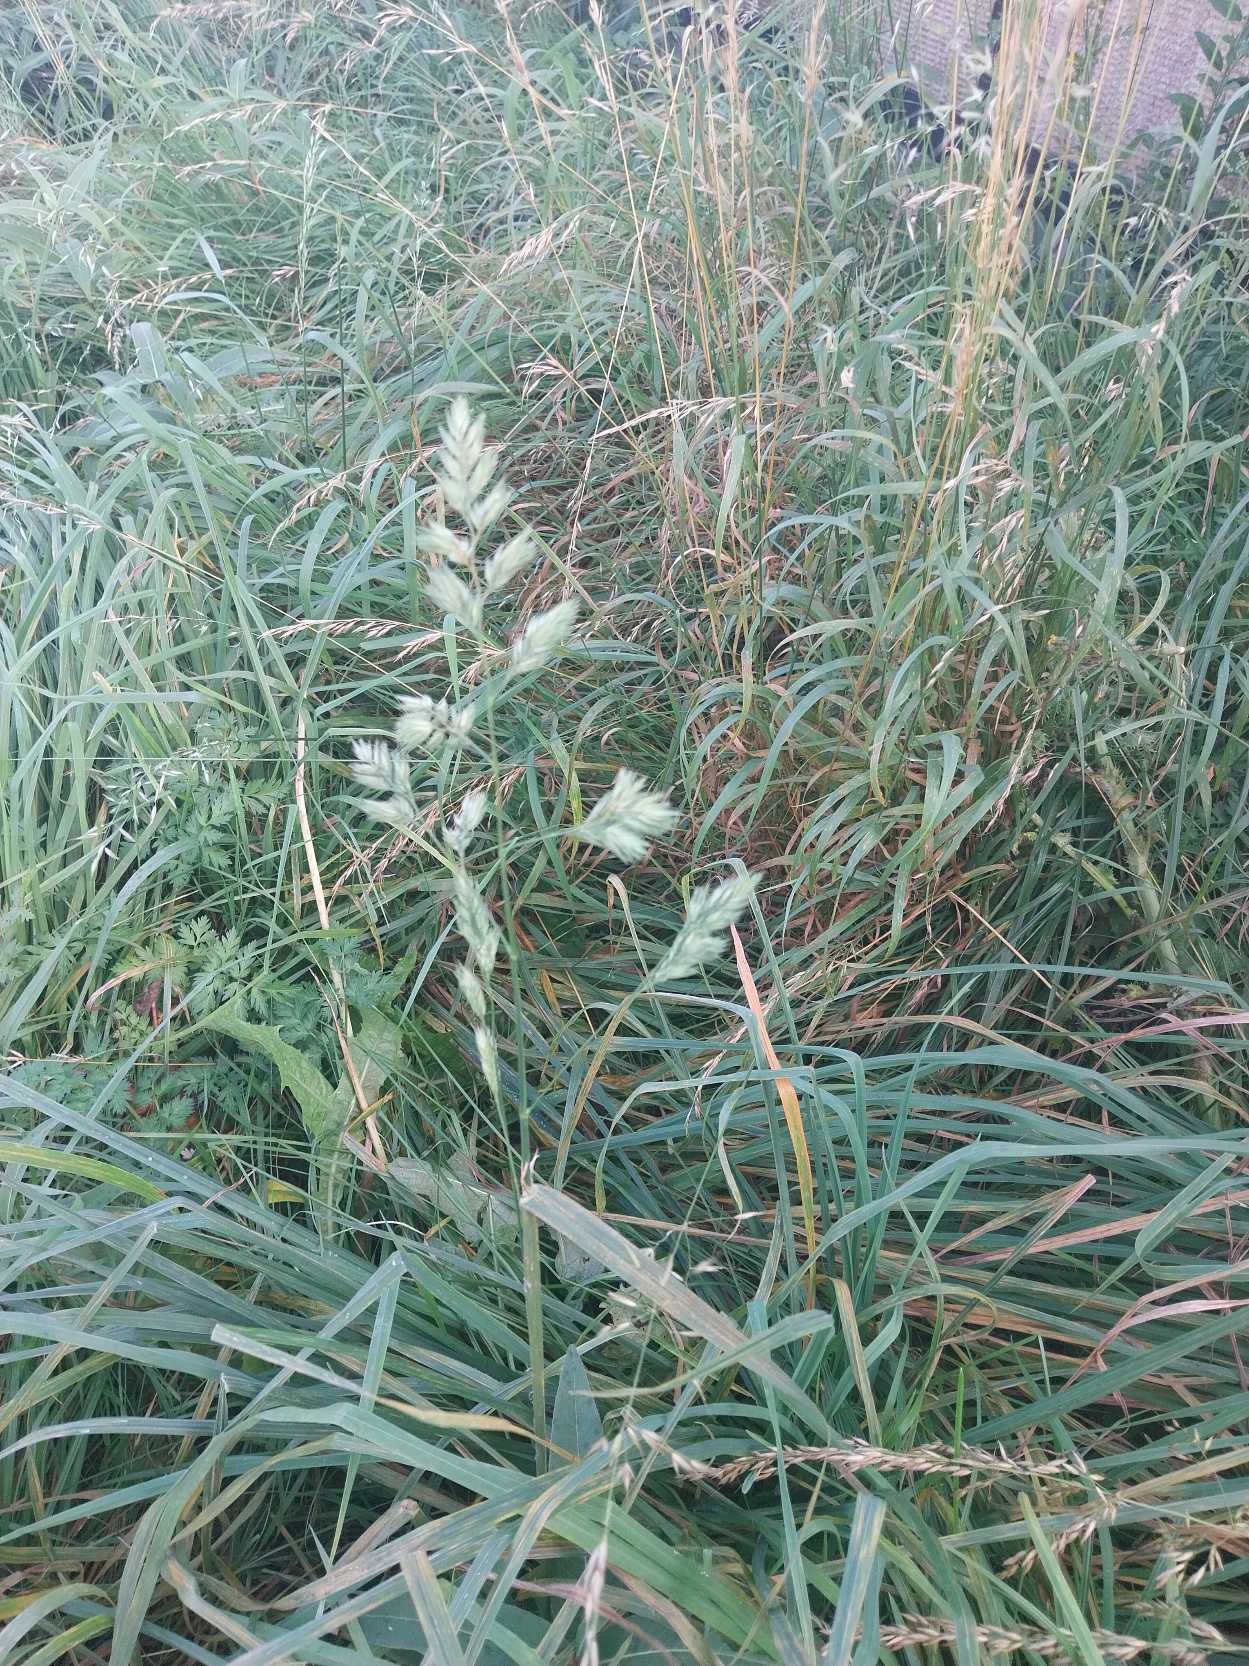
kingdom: Plantae
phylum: Tracheophyta
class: Liliopsida
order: Poales
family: Poaceae
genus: Dactylis
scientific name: Dactylis glomerata
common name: Almindelig hundegræs
